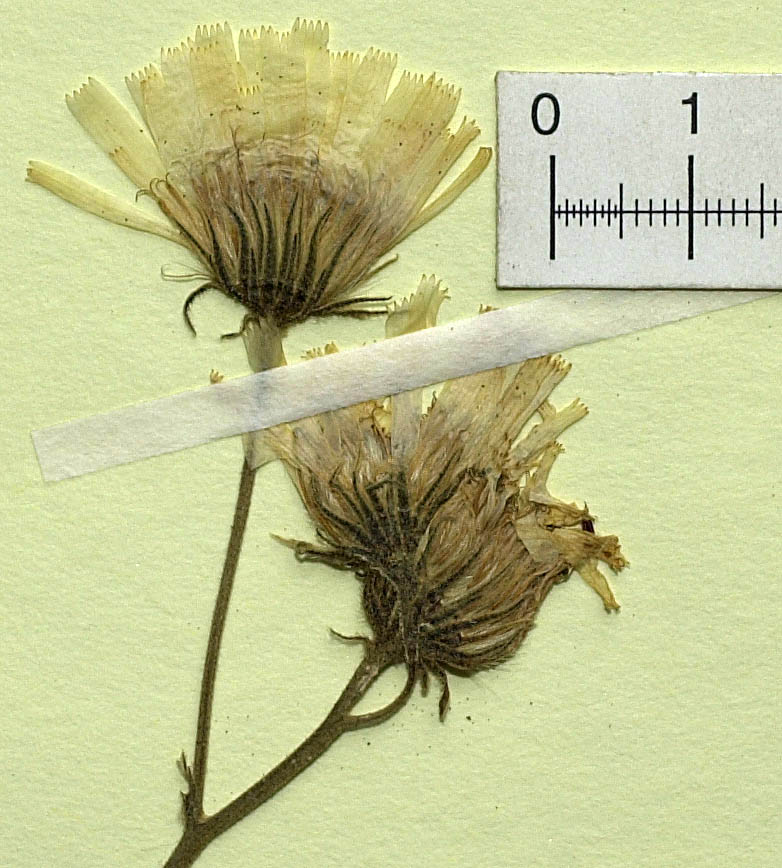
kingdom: Plantae
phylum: Tracheophyta
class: Magnoliopsida
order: Asterales
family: Asteraceae
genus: Hieracium
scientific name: Hieracium hypochoeroides
